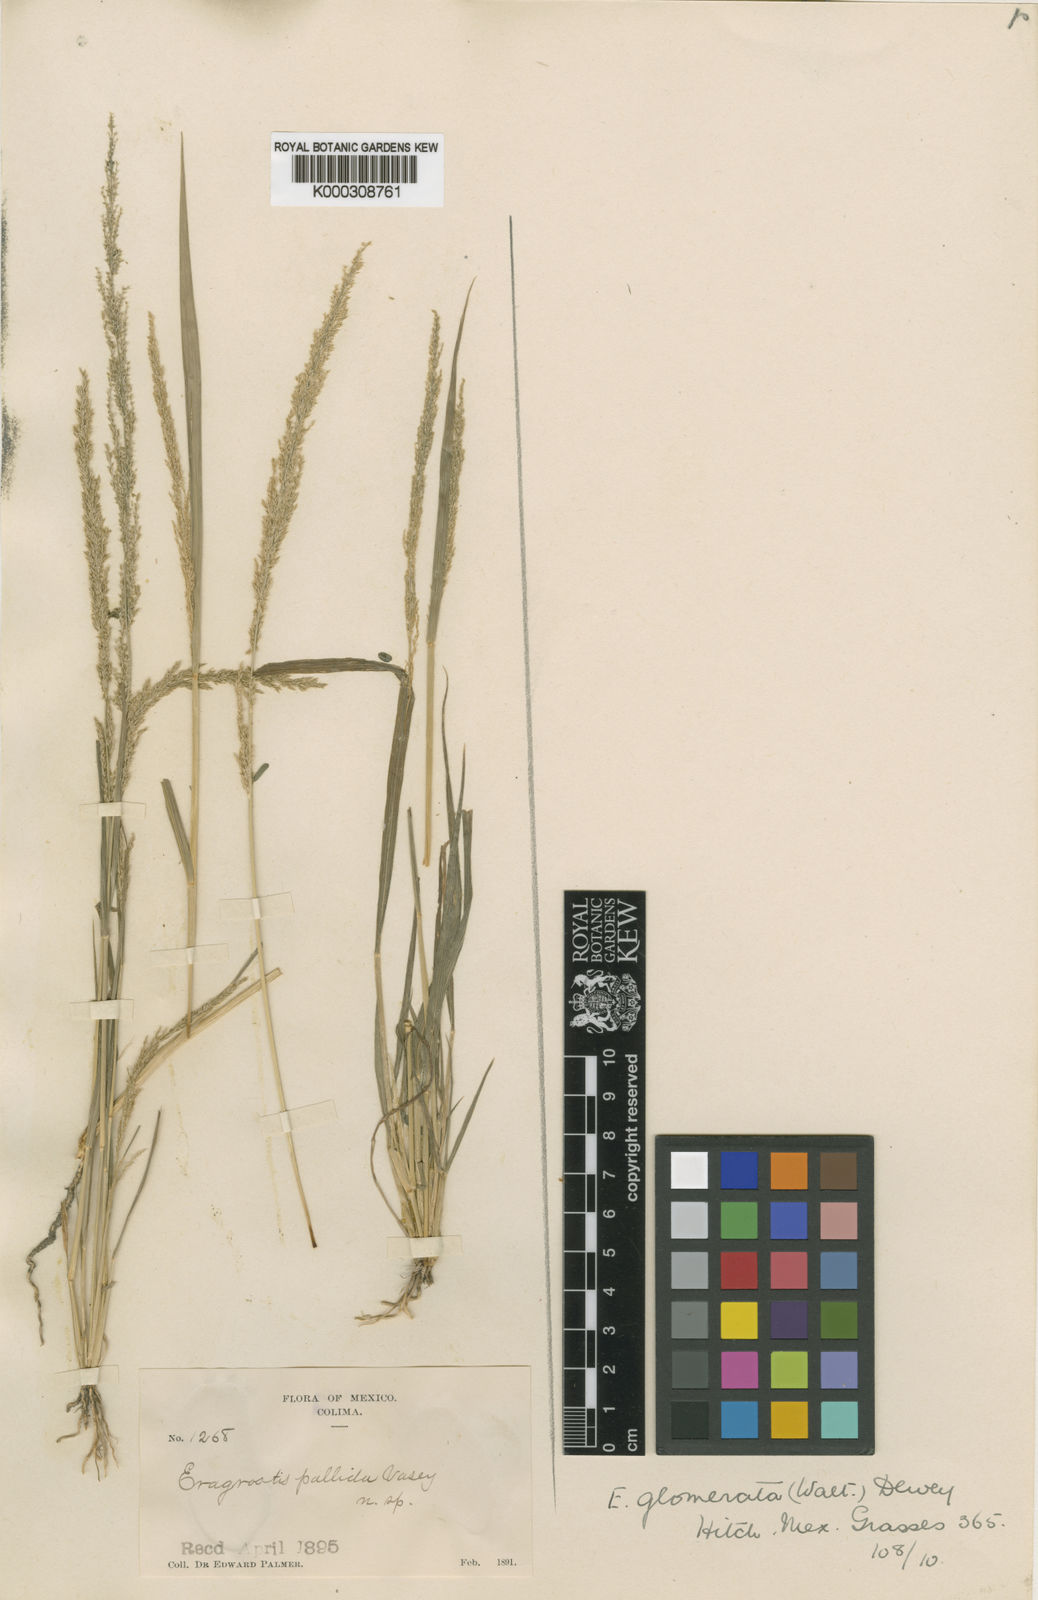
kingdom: Plantae
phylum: Tracheophyta
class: Liliopsida
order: Poales
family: Poaceae
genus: Eragrostis
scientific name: Eragrostis japonica
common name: Pond lovegrass
